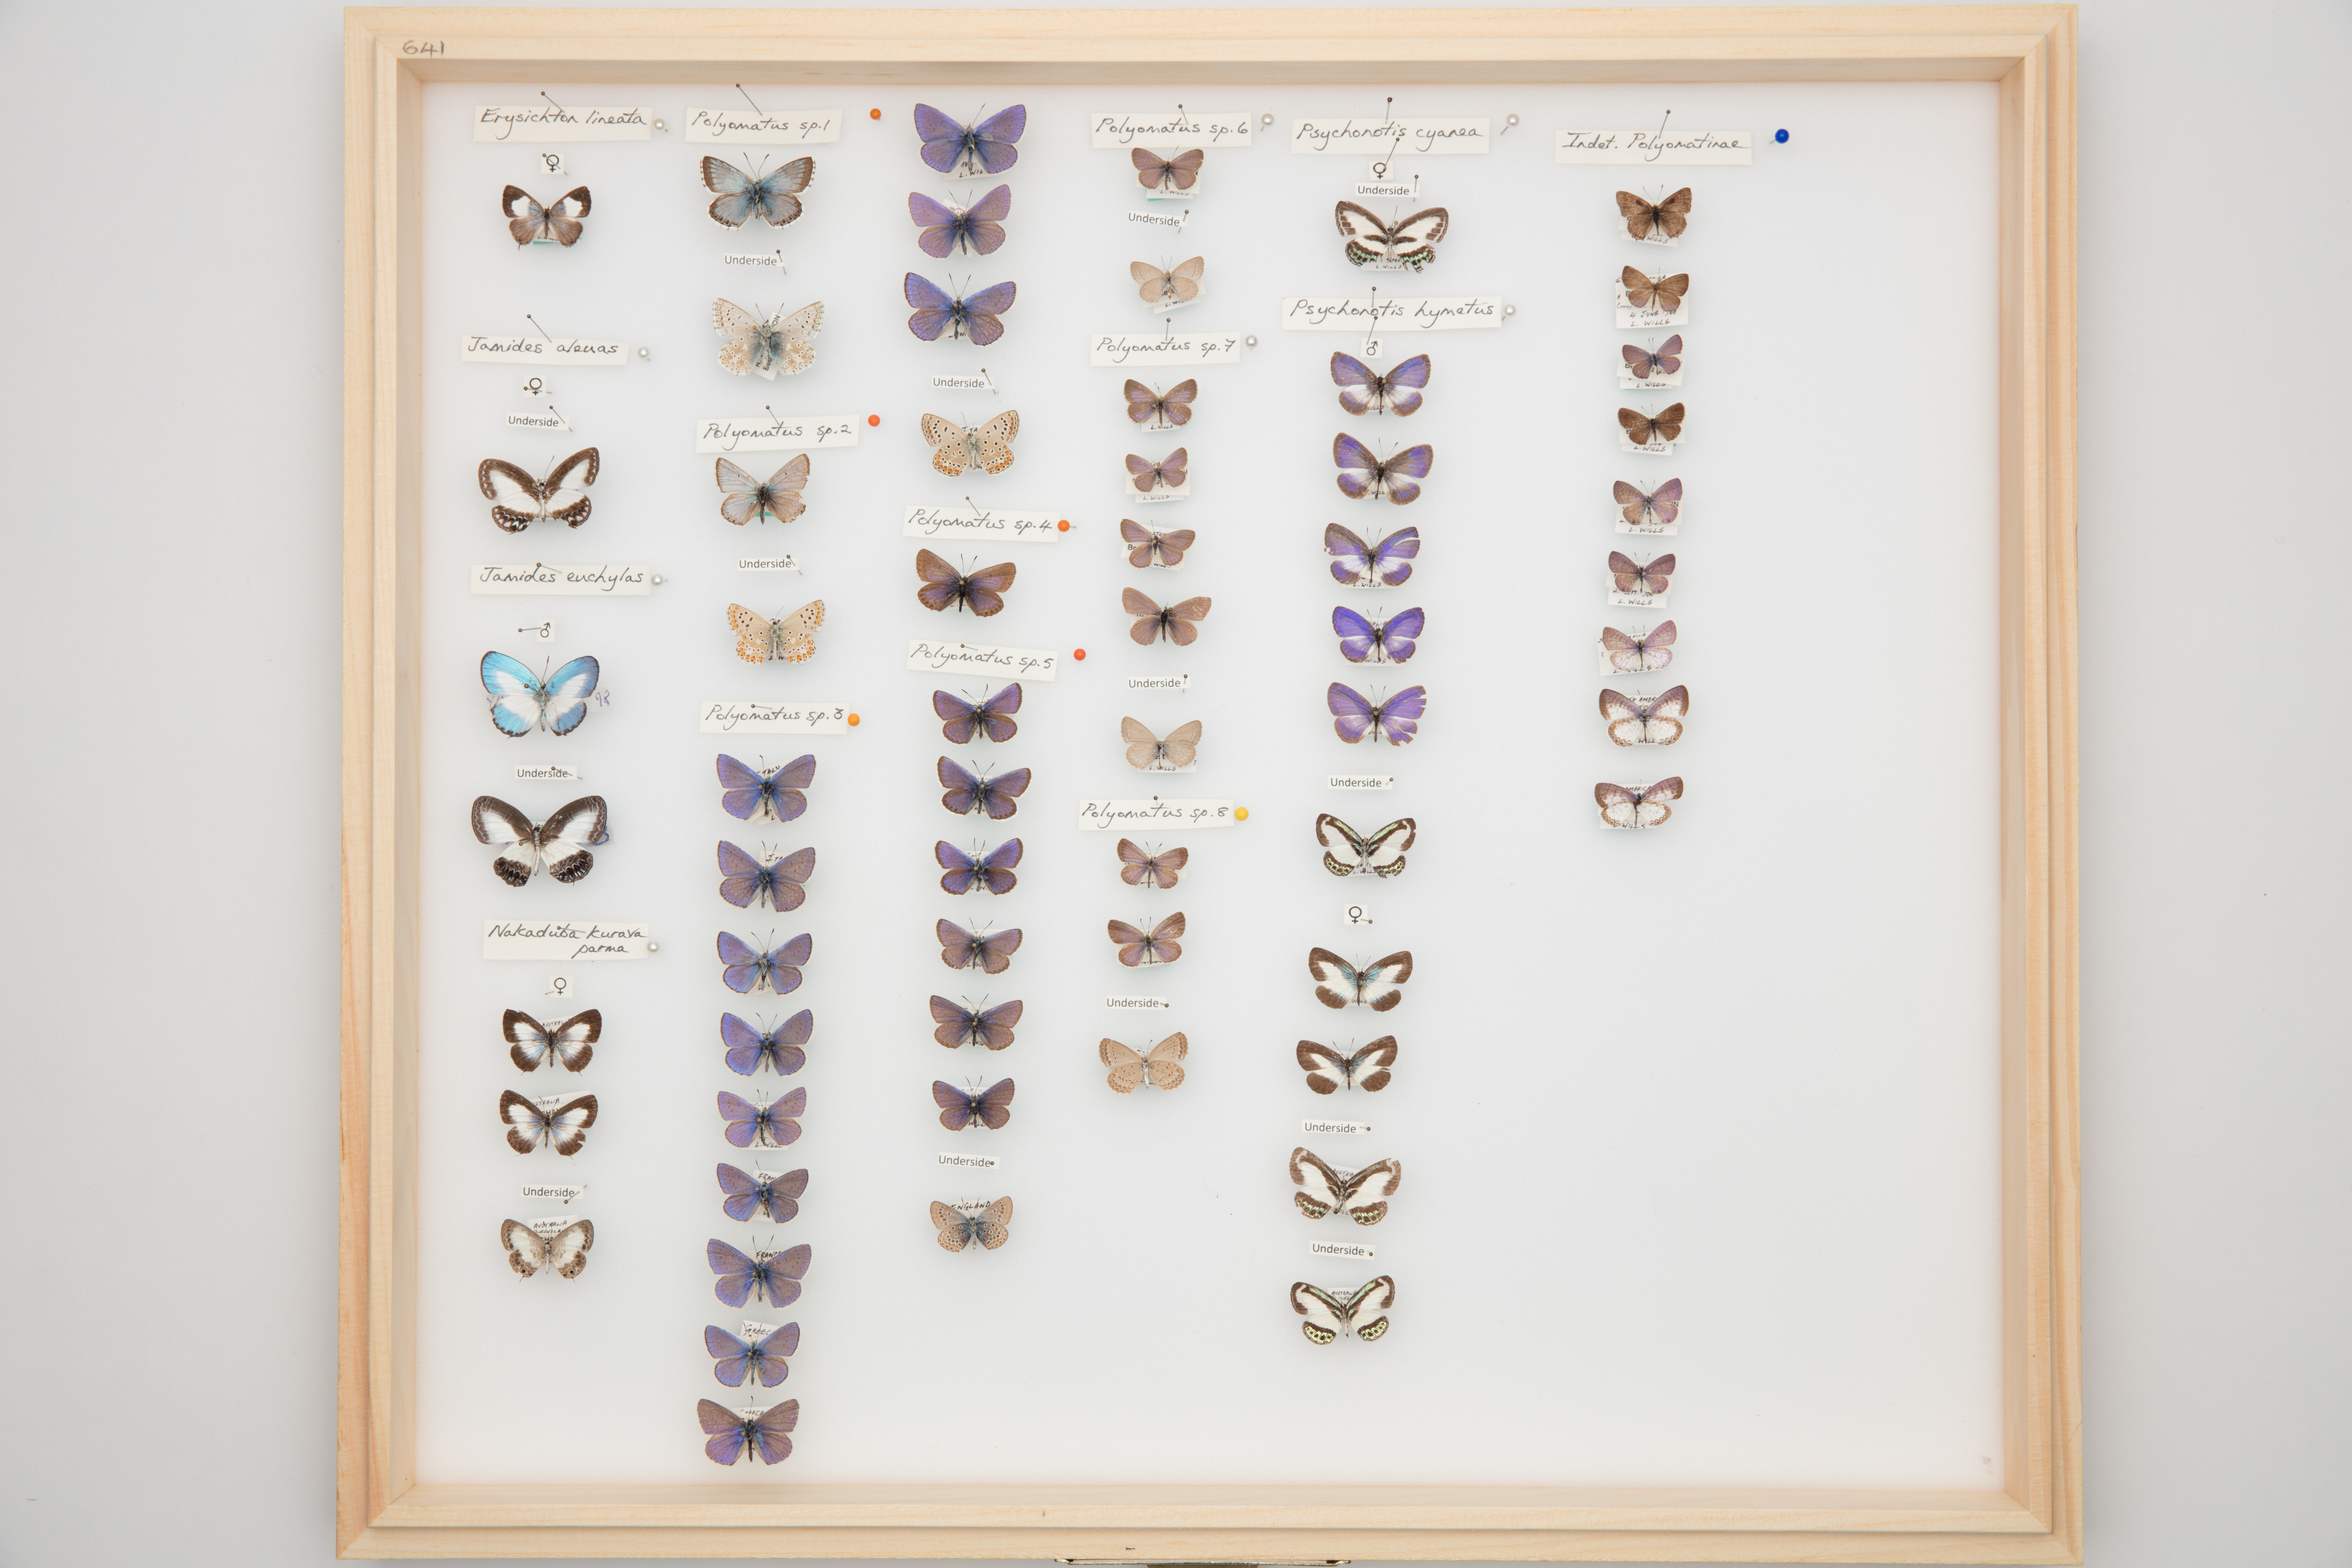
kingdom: Animalia
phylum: Arthropoda
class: Insecta
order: Lepidoptera
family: Lycaenidae
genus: Jamides
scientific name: Jamides euchylas
